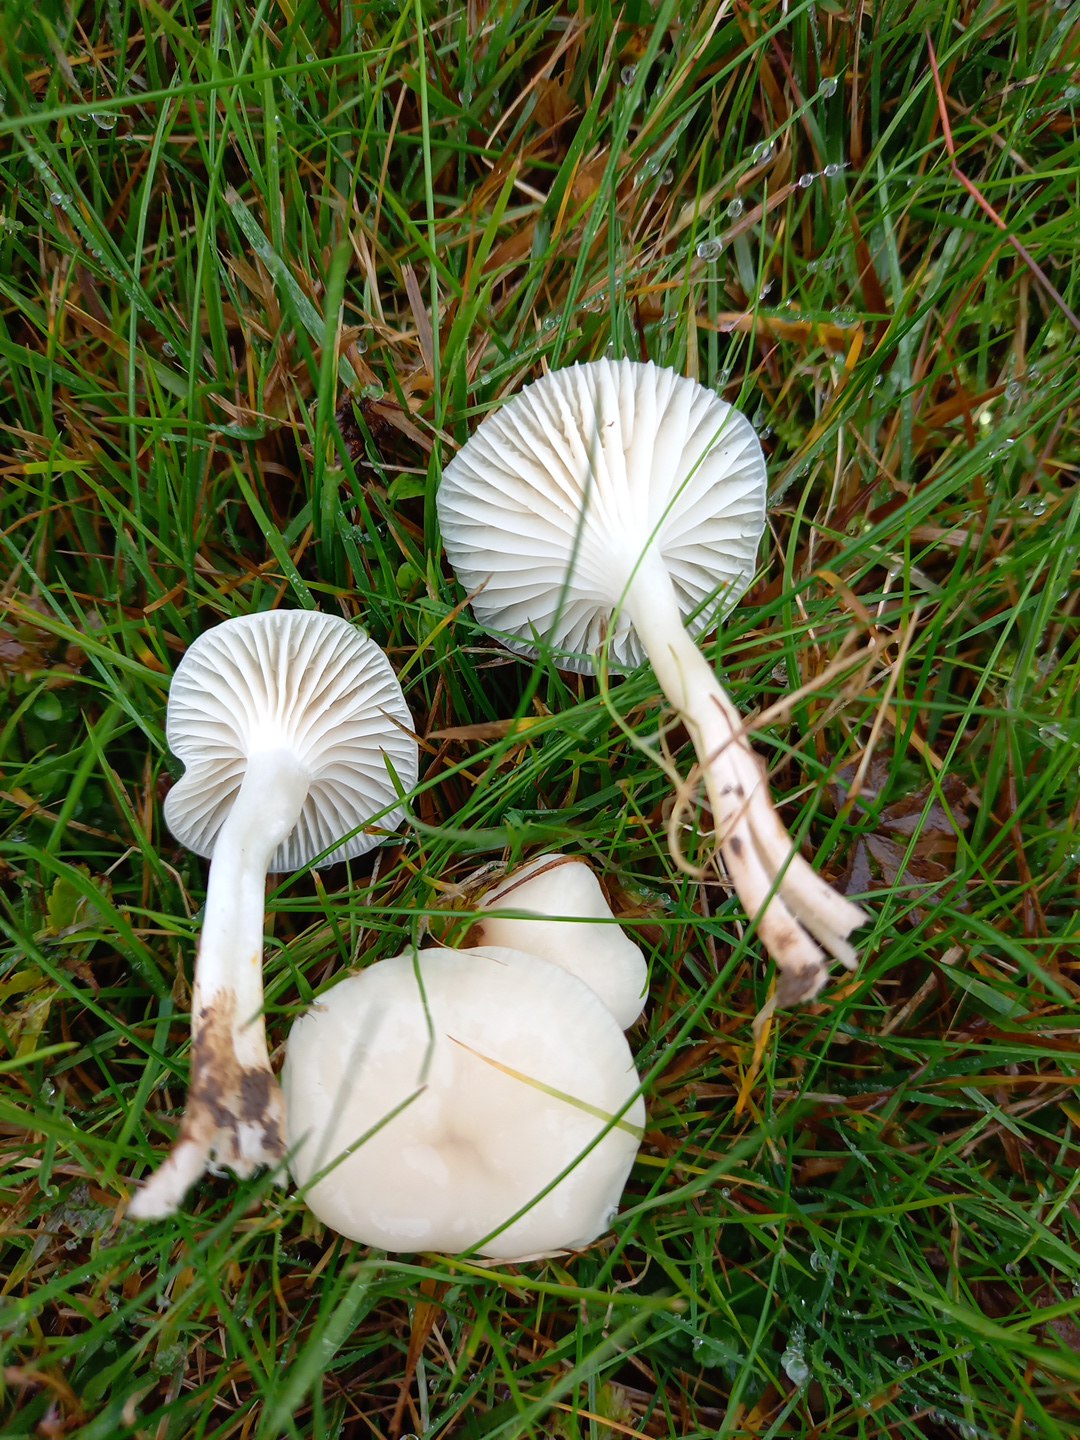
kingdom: Fungi
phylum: Basidiomycota
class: Agaricomycetes
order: Agaricales
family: Hygrophoraceae
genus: Cuphophyllus
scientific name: Cuphophyllus
